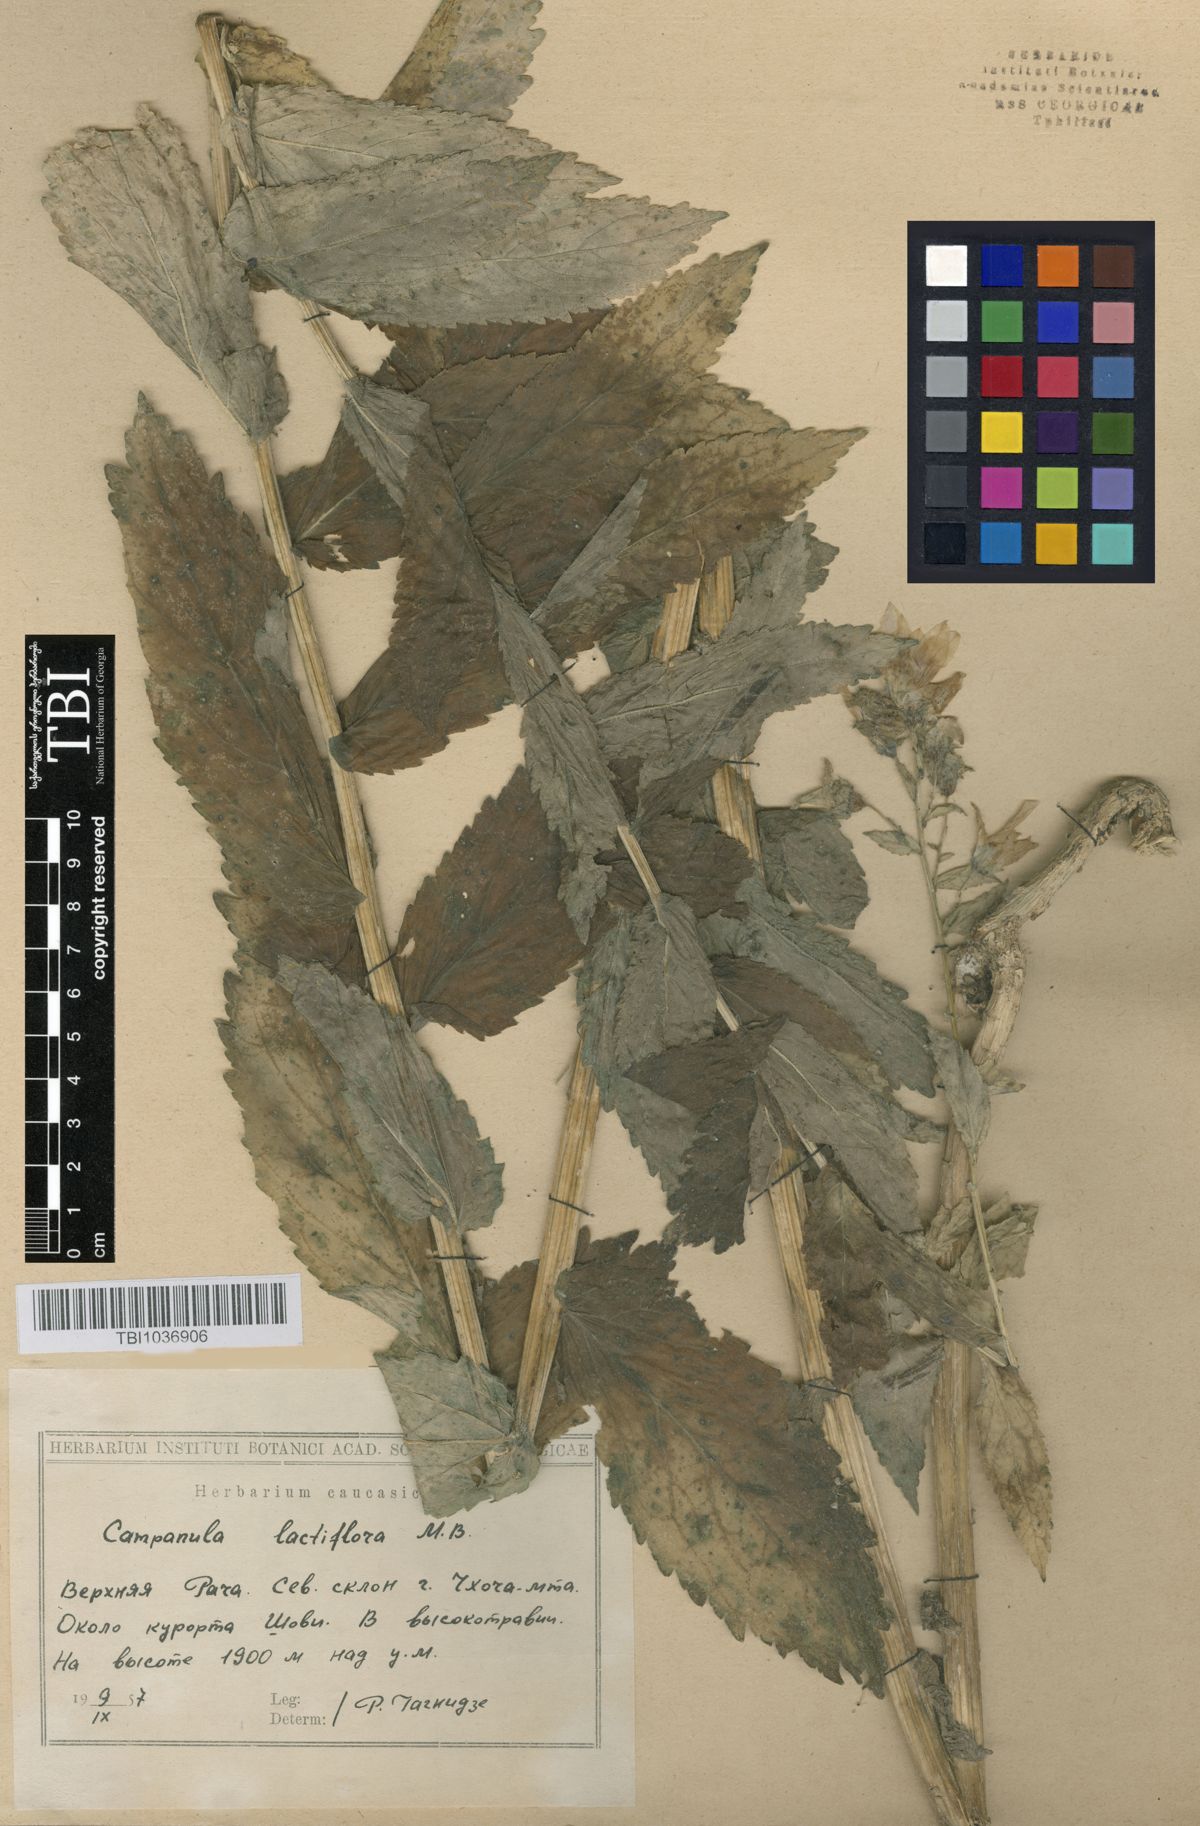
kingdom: Plantae
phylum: Tracheophyta
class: Magnoliopsida
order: Asterales
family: Campanulaceae
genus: Campanula
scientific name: Campanula lactiflora
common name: Milky bellflower
